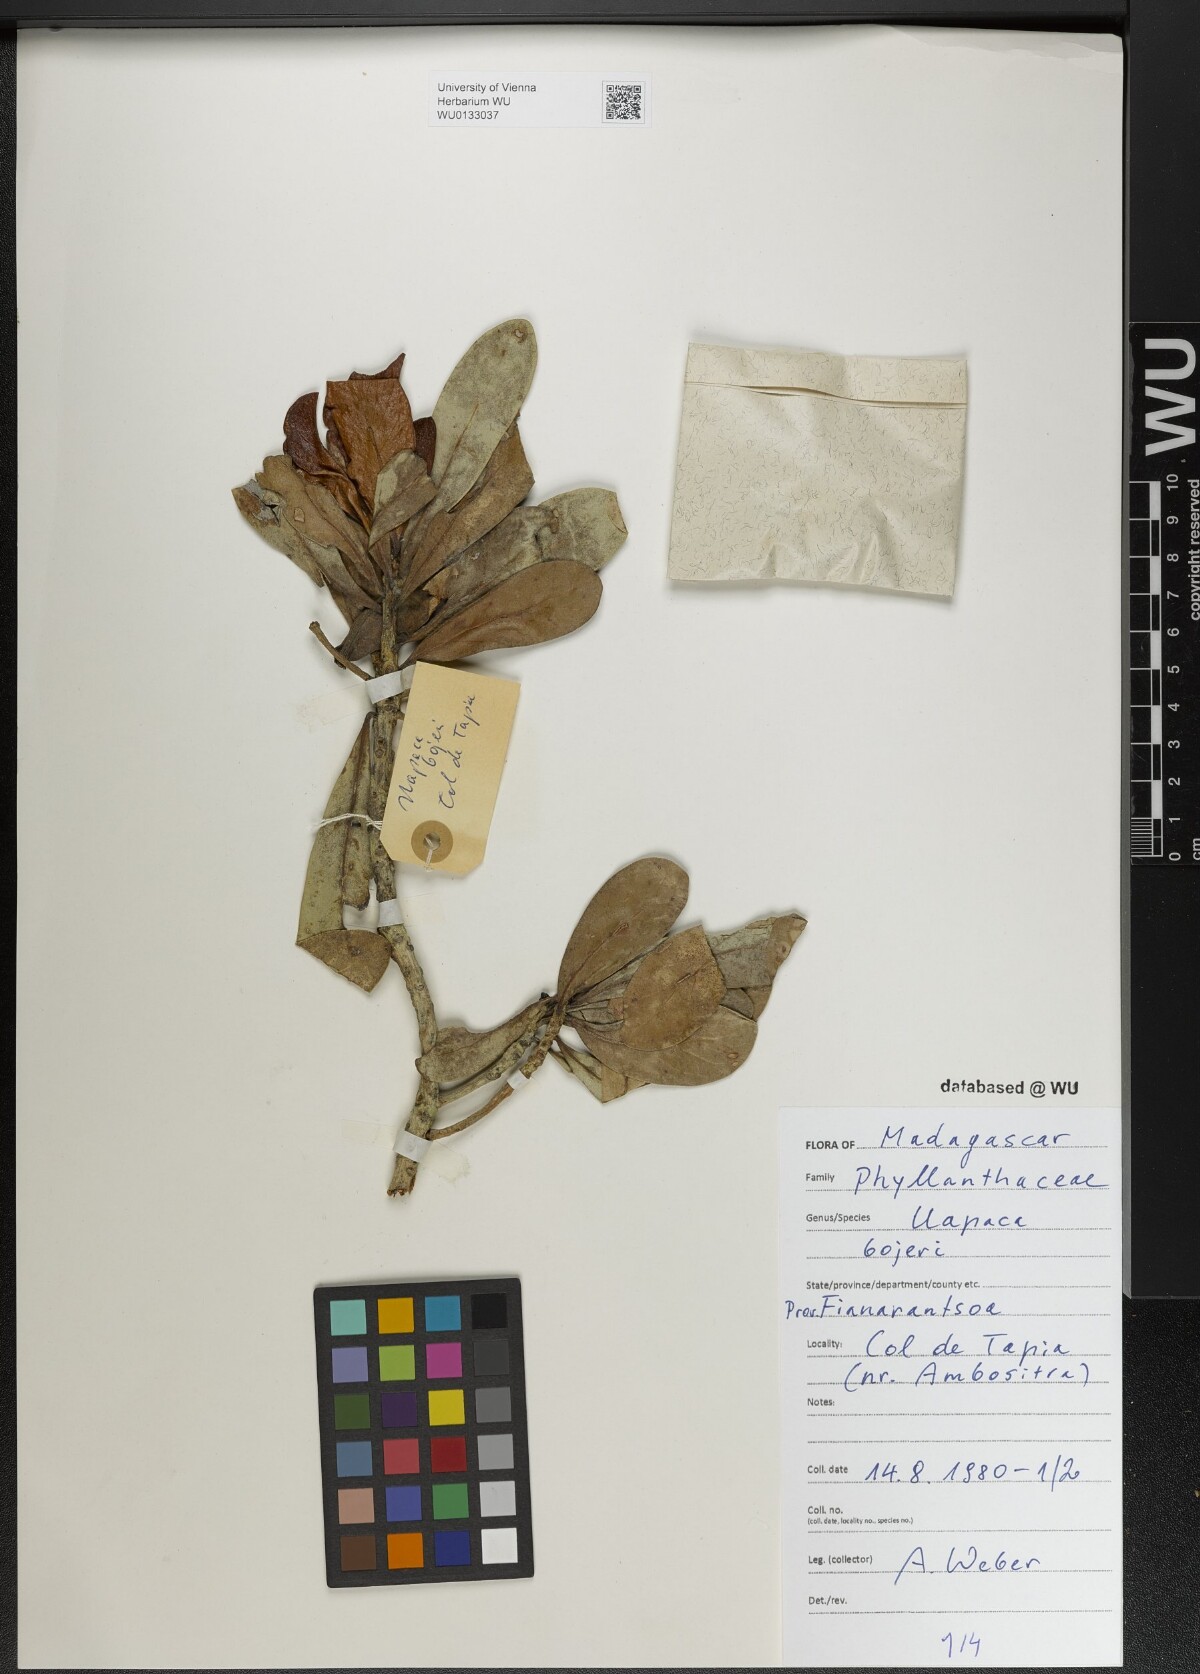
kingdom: Plantae
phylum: Tracheophyta
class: Magnoliopsida
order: Malpighiales
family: Phyllanthaceae
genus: Uapaca
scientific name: Uapaca bojeri
